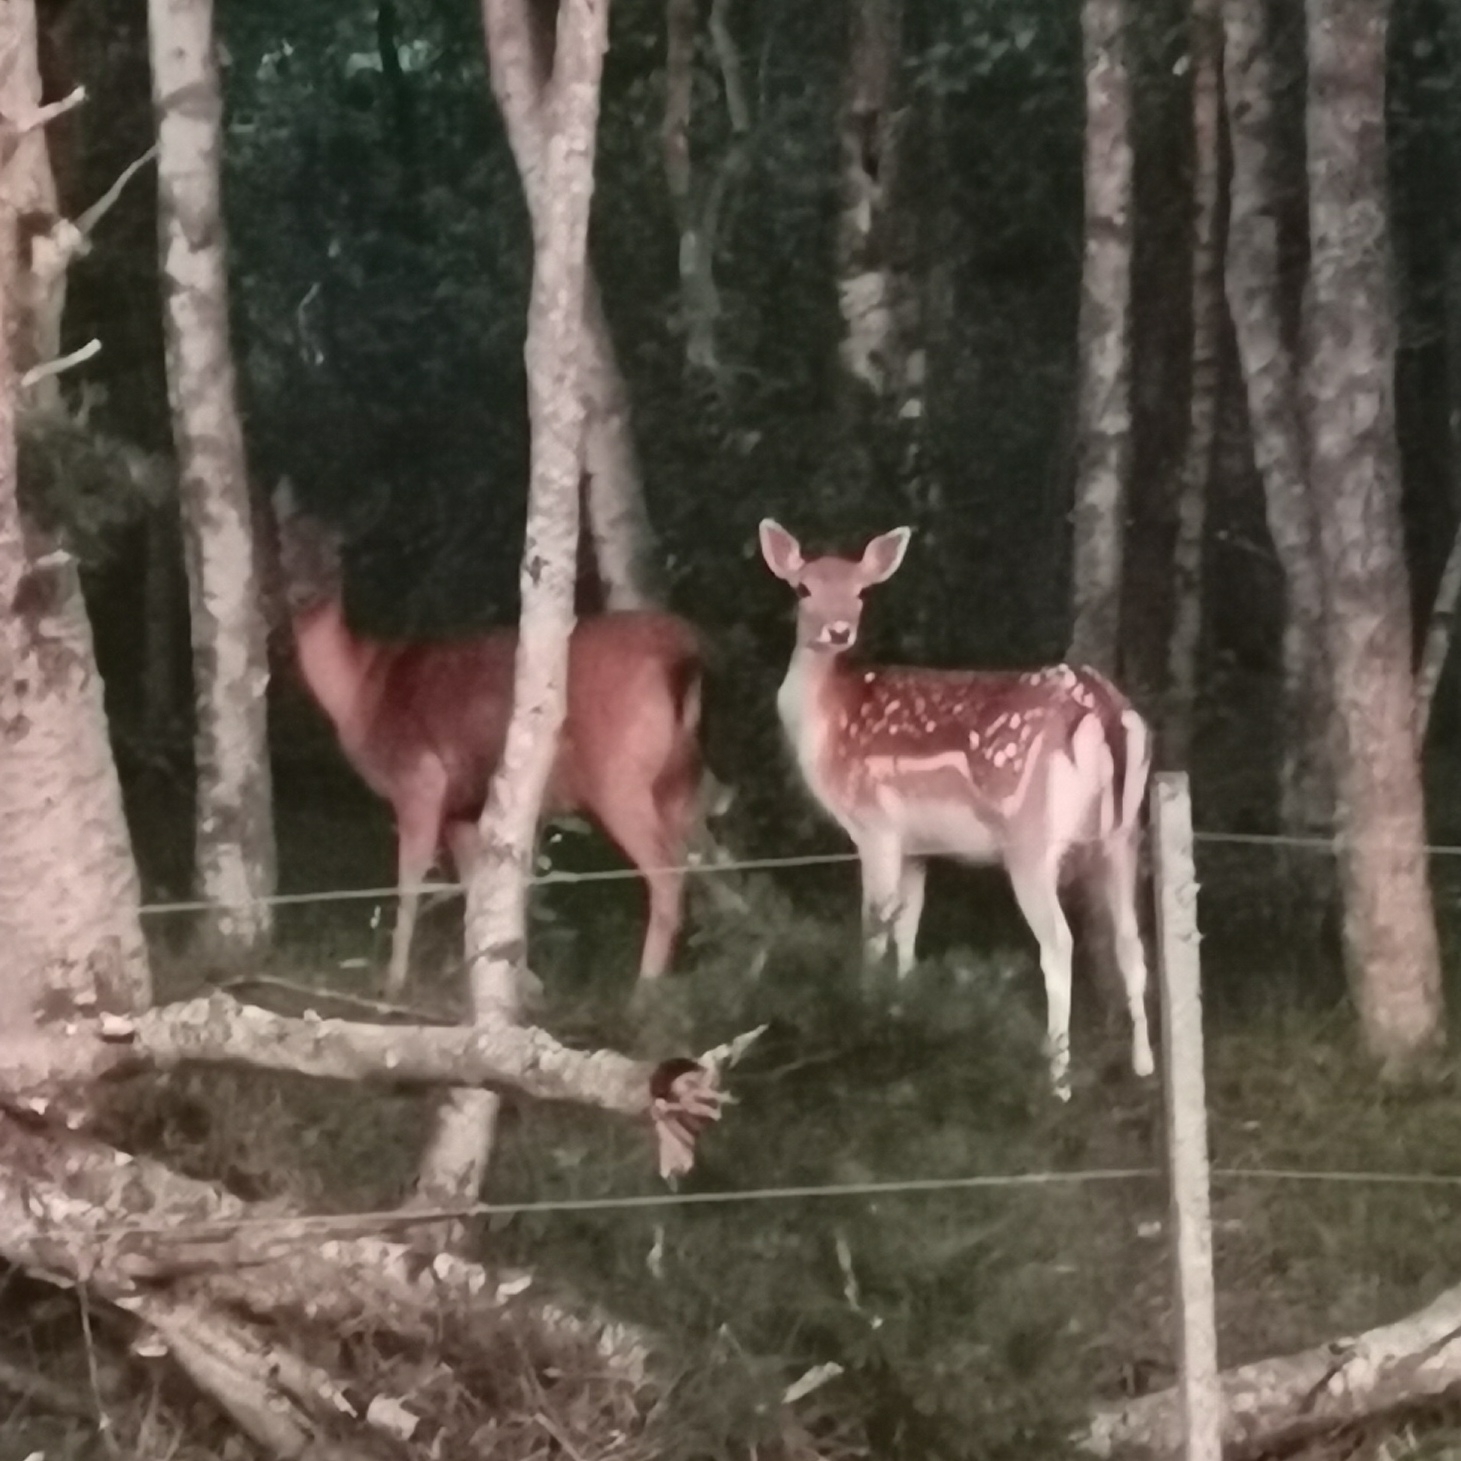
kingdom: Animalia
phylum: Chordata
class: Mammalia
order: Artiodactyla
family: Cervidae
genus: Dama
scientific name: Dama dama
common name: Dådyr
